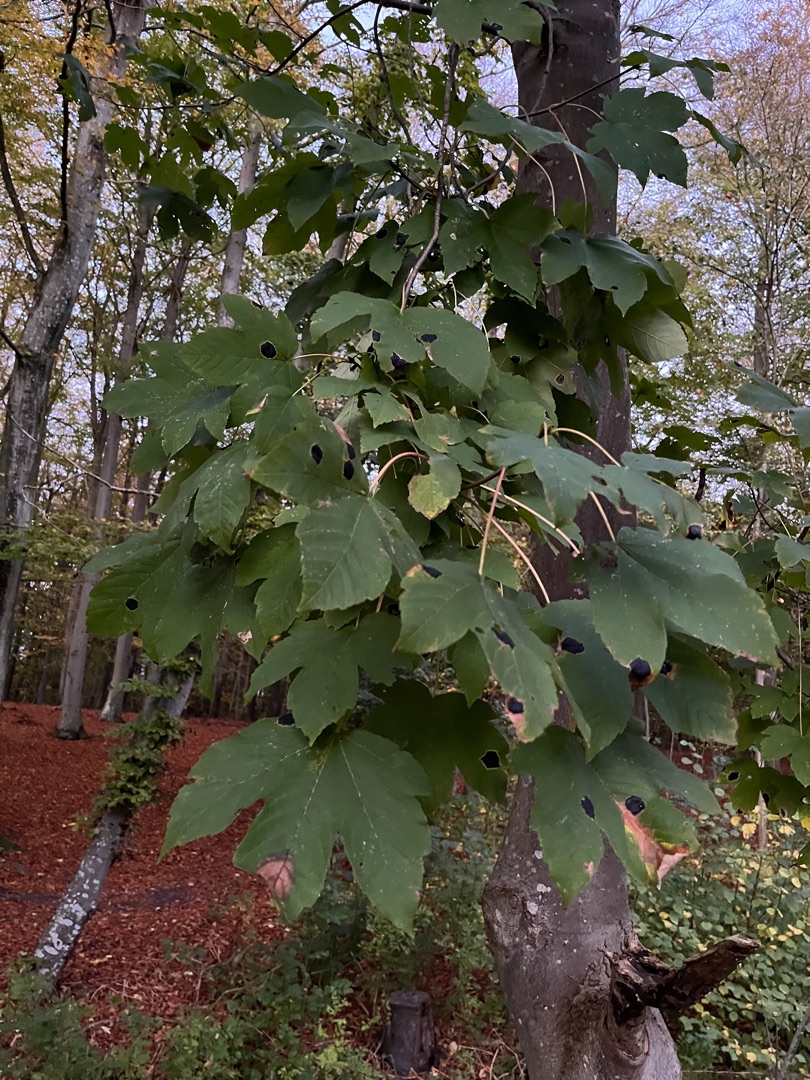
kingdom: Plantae
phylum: Tracheophyta
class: Magnoliopsida
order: Sapindales
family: Sapindaceae
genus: Acer
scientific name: Acer pseudoplatanus
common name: Ahorn
